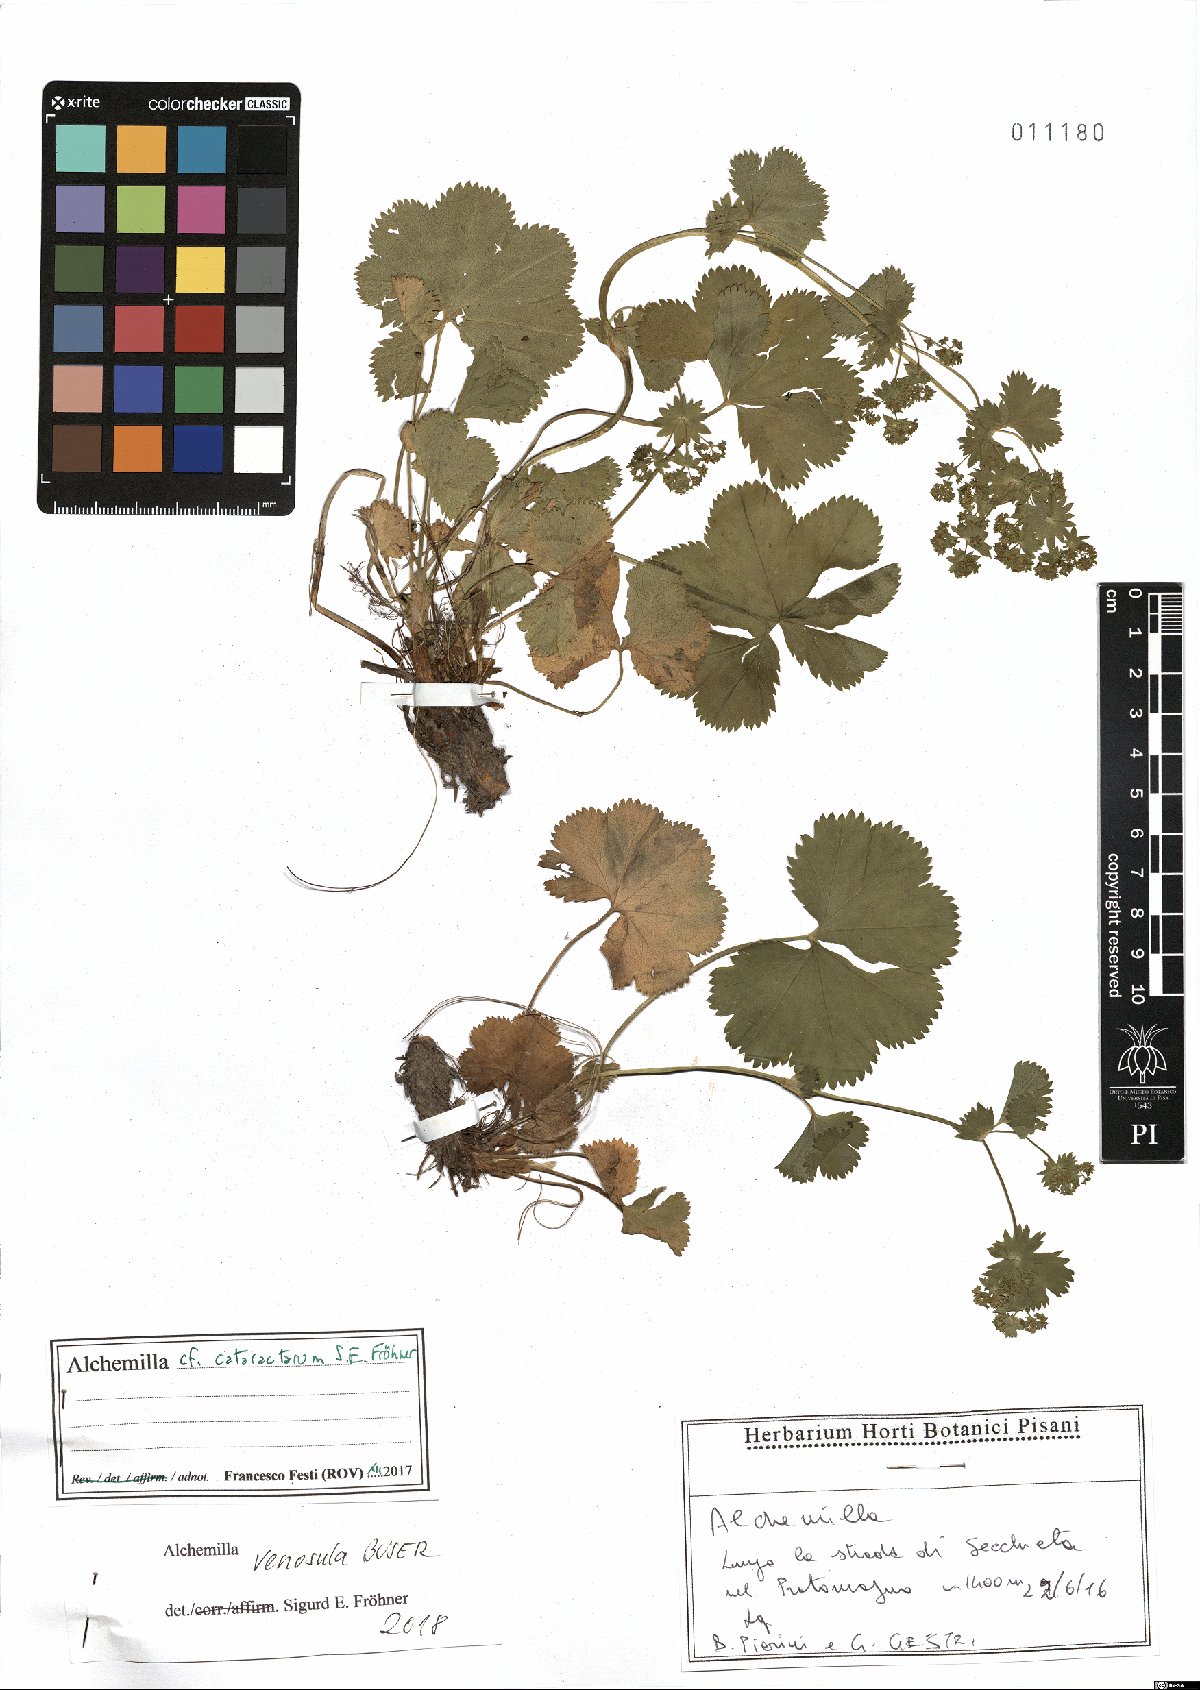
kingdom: Plantae
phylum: Tracheophyta
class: Magnoliopsida
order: Rosales
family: Rosaceae
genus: Alchemilla
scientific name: Alchemilla venosula
